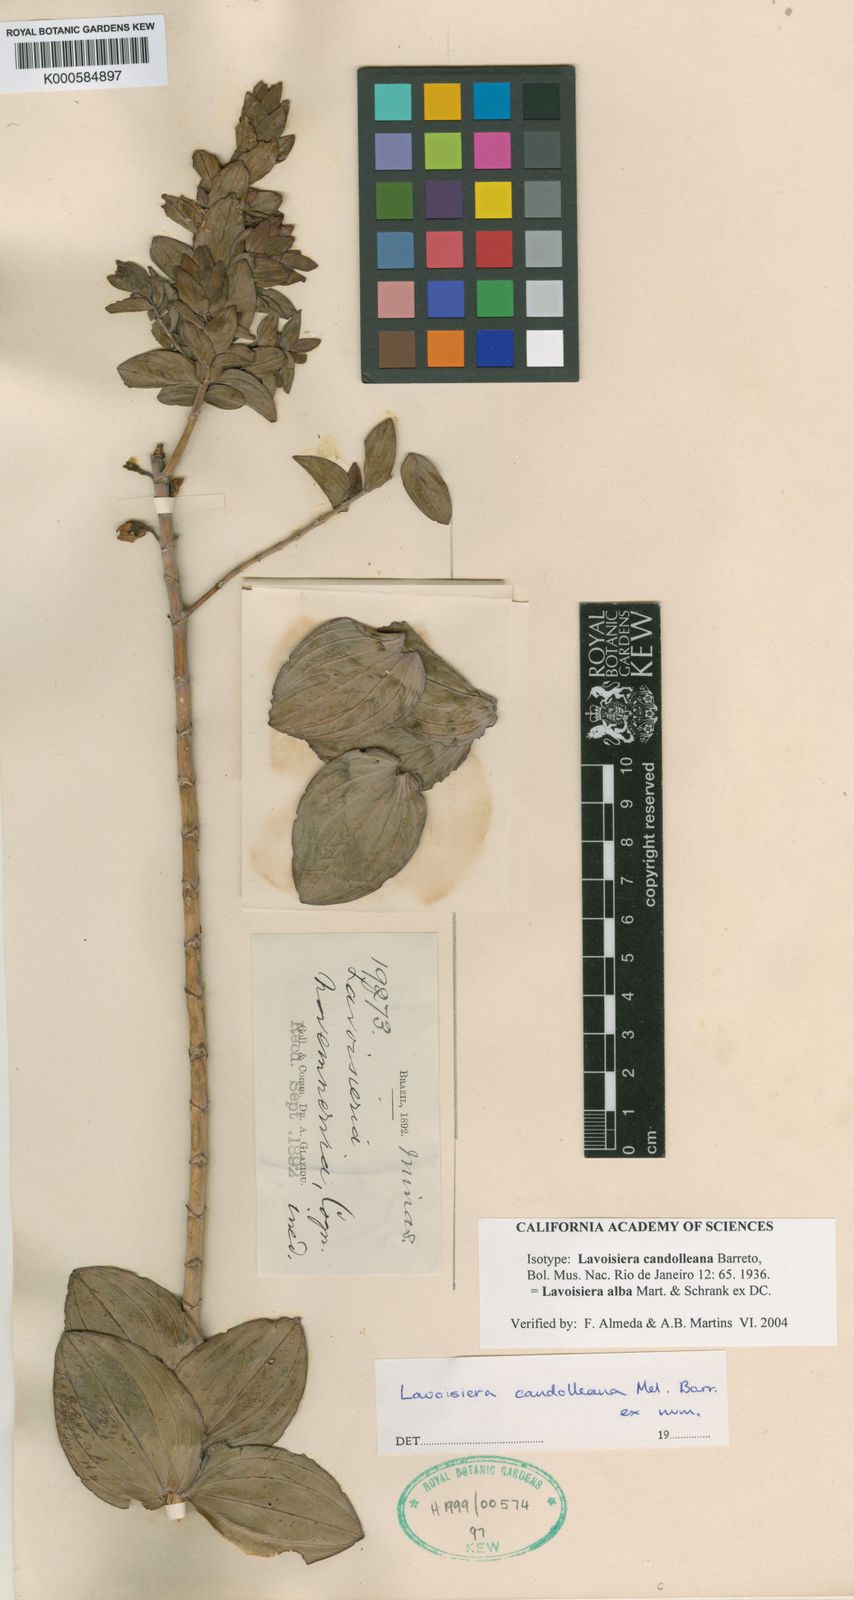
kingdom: Plantae
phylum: Tracheophyta
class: Magnoliopsida
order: Myrtales
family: Melastomataceae
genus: Microlicia
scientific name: Microlicia alba
